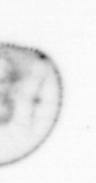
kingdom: Chromista
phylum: Myzozoa
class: Dinophyceae
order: Noctilucales
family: Noctilucaceae
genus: Noctiluca
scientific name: Noctiluca scintillans
